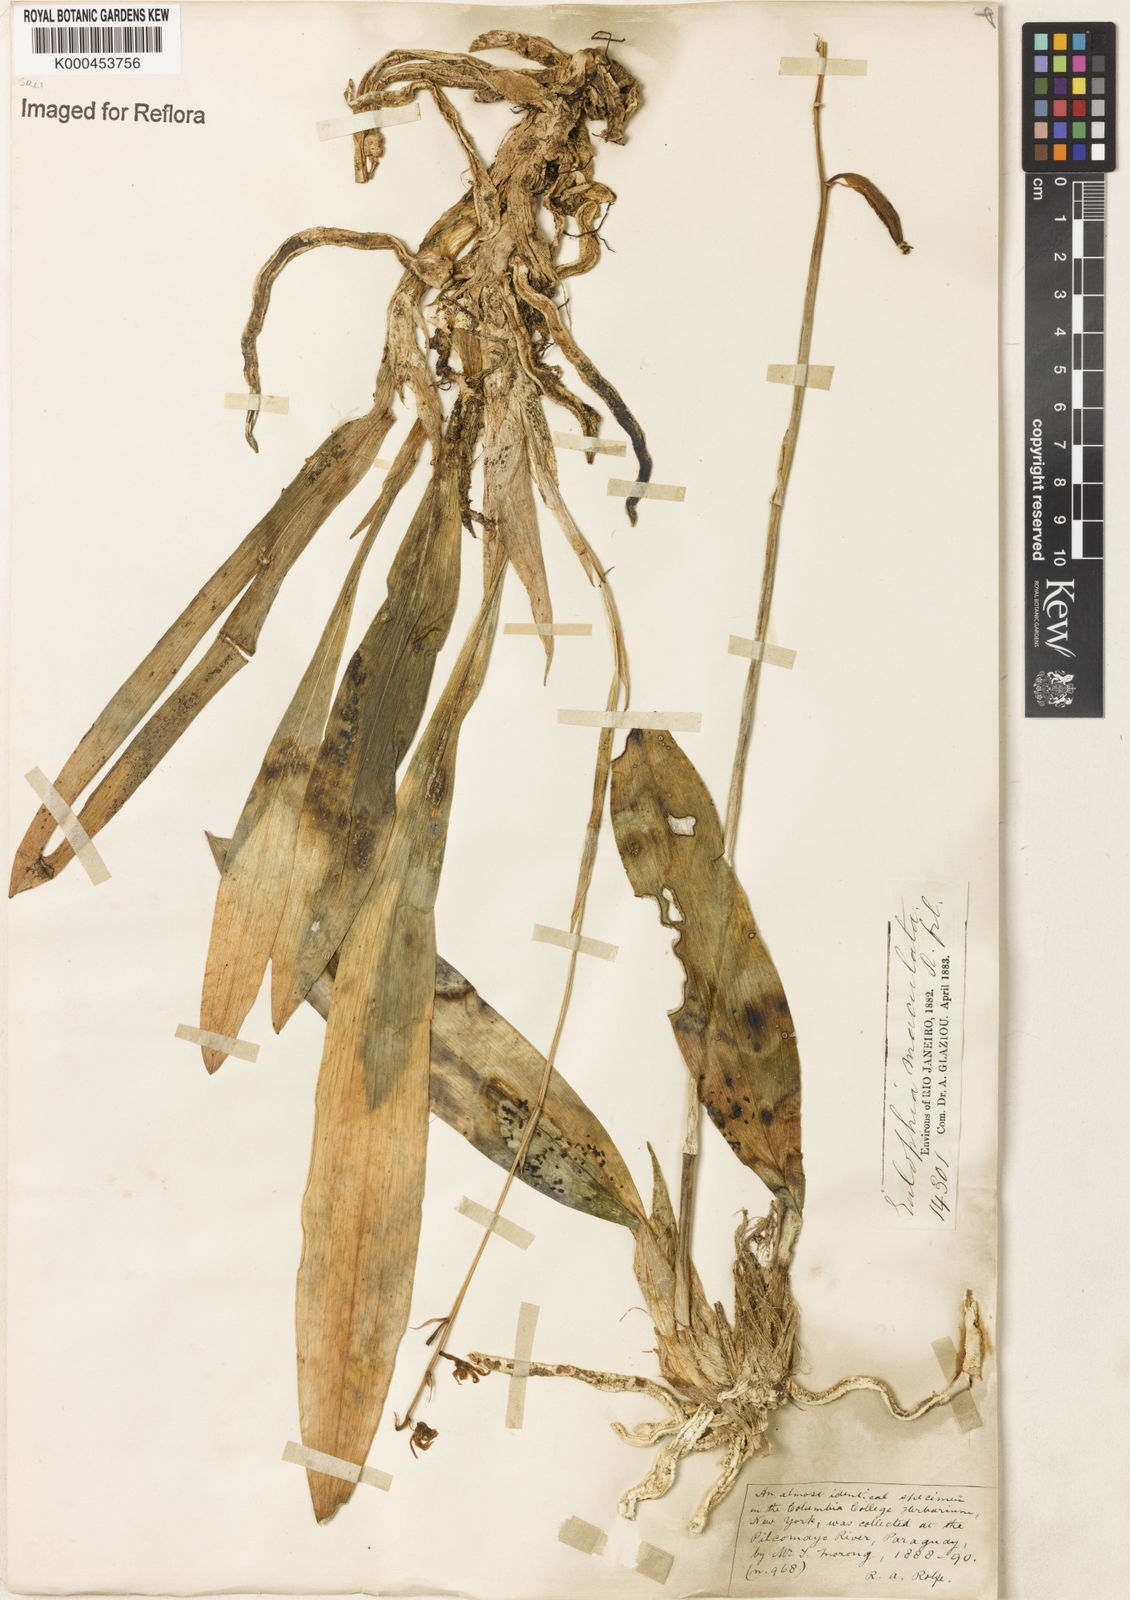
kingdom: Plantae
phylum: Tracheophyta
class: Liliopsida
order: Asparagales
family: Orchidaceae
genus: Eulophia
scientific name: Eulophia maculata
